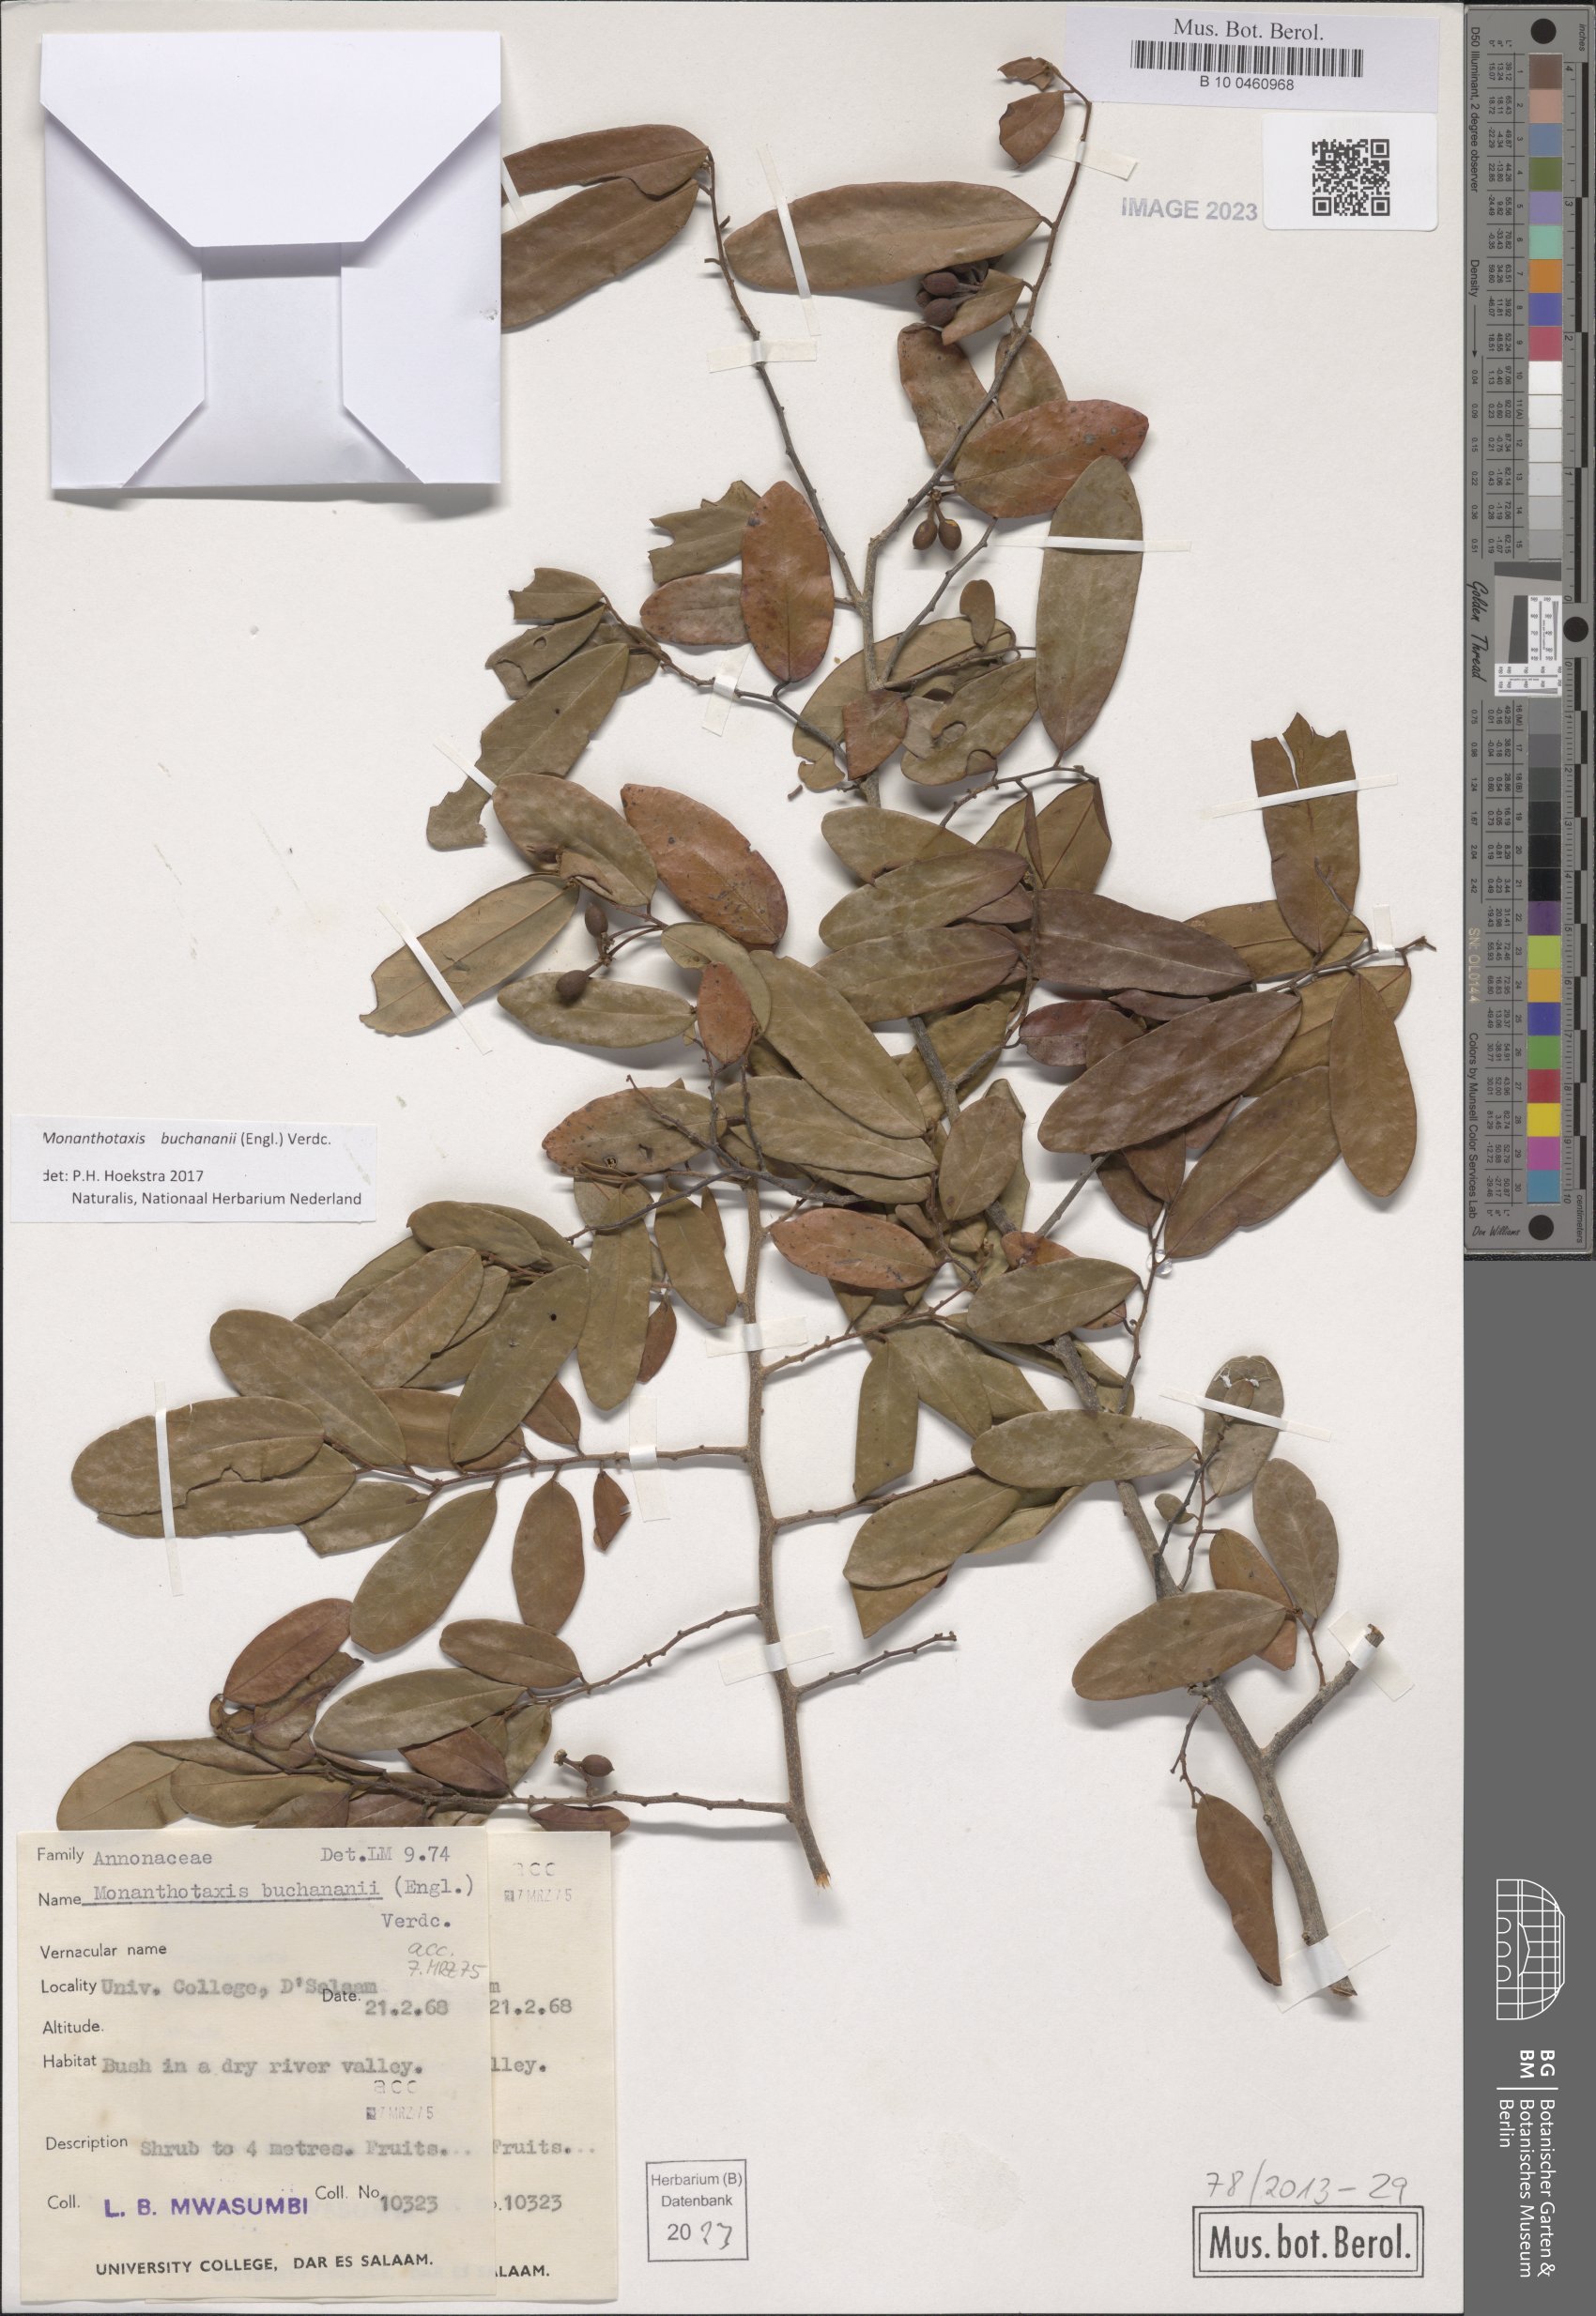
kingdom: Plantae
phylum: Tracheophyta
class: Magnoliopsida
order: Magnoliales
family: Annonaceae
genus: Monanthotaxis
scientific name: Monanthotaxis buchananii
